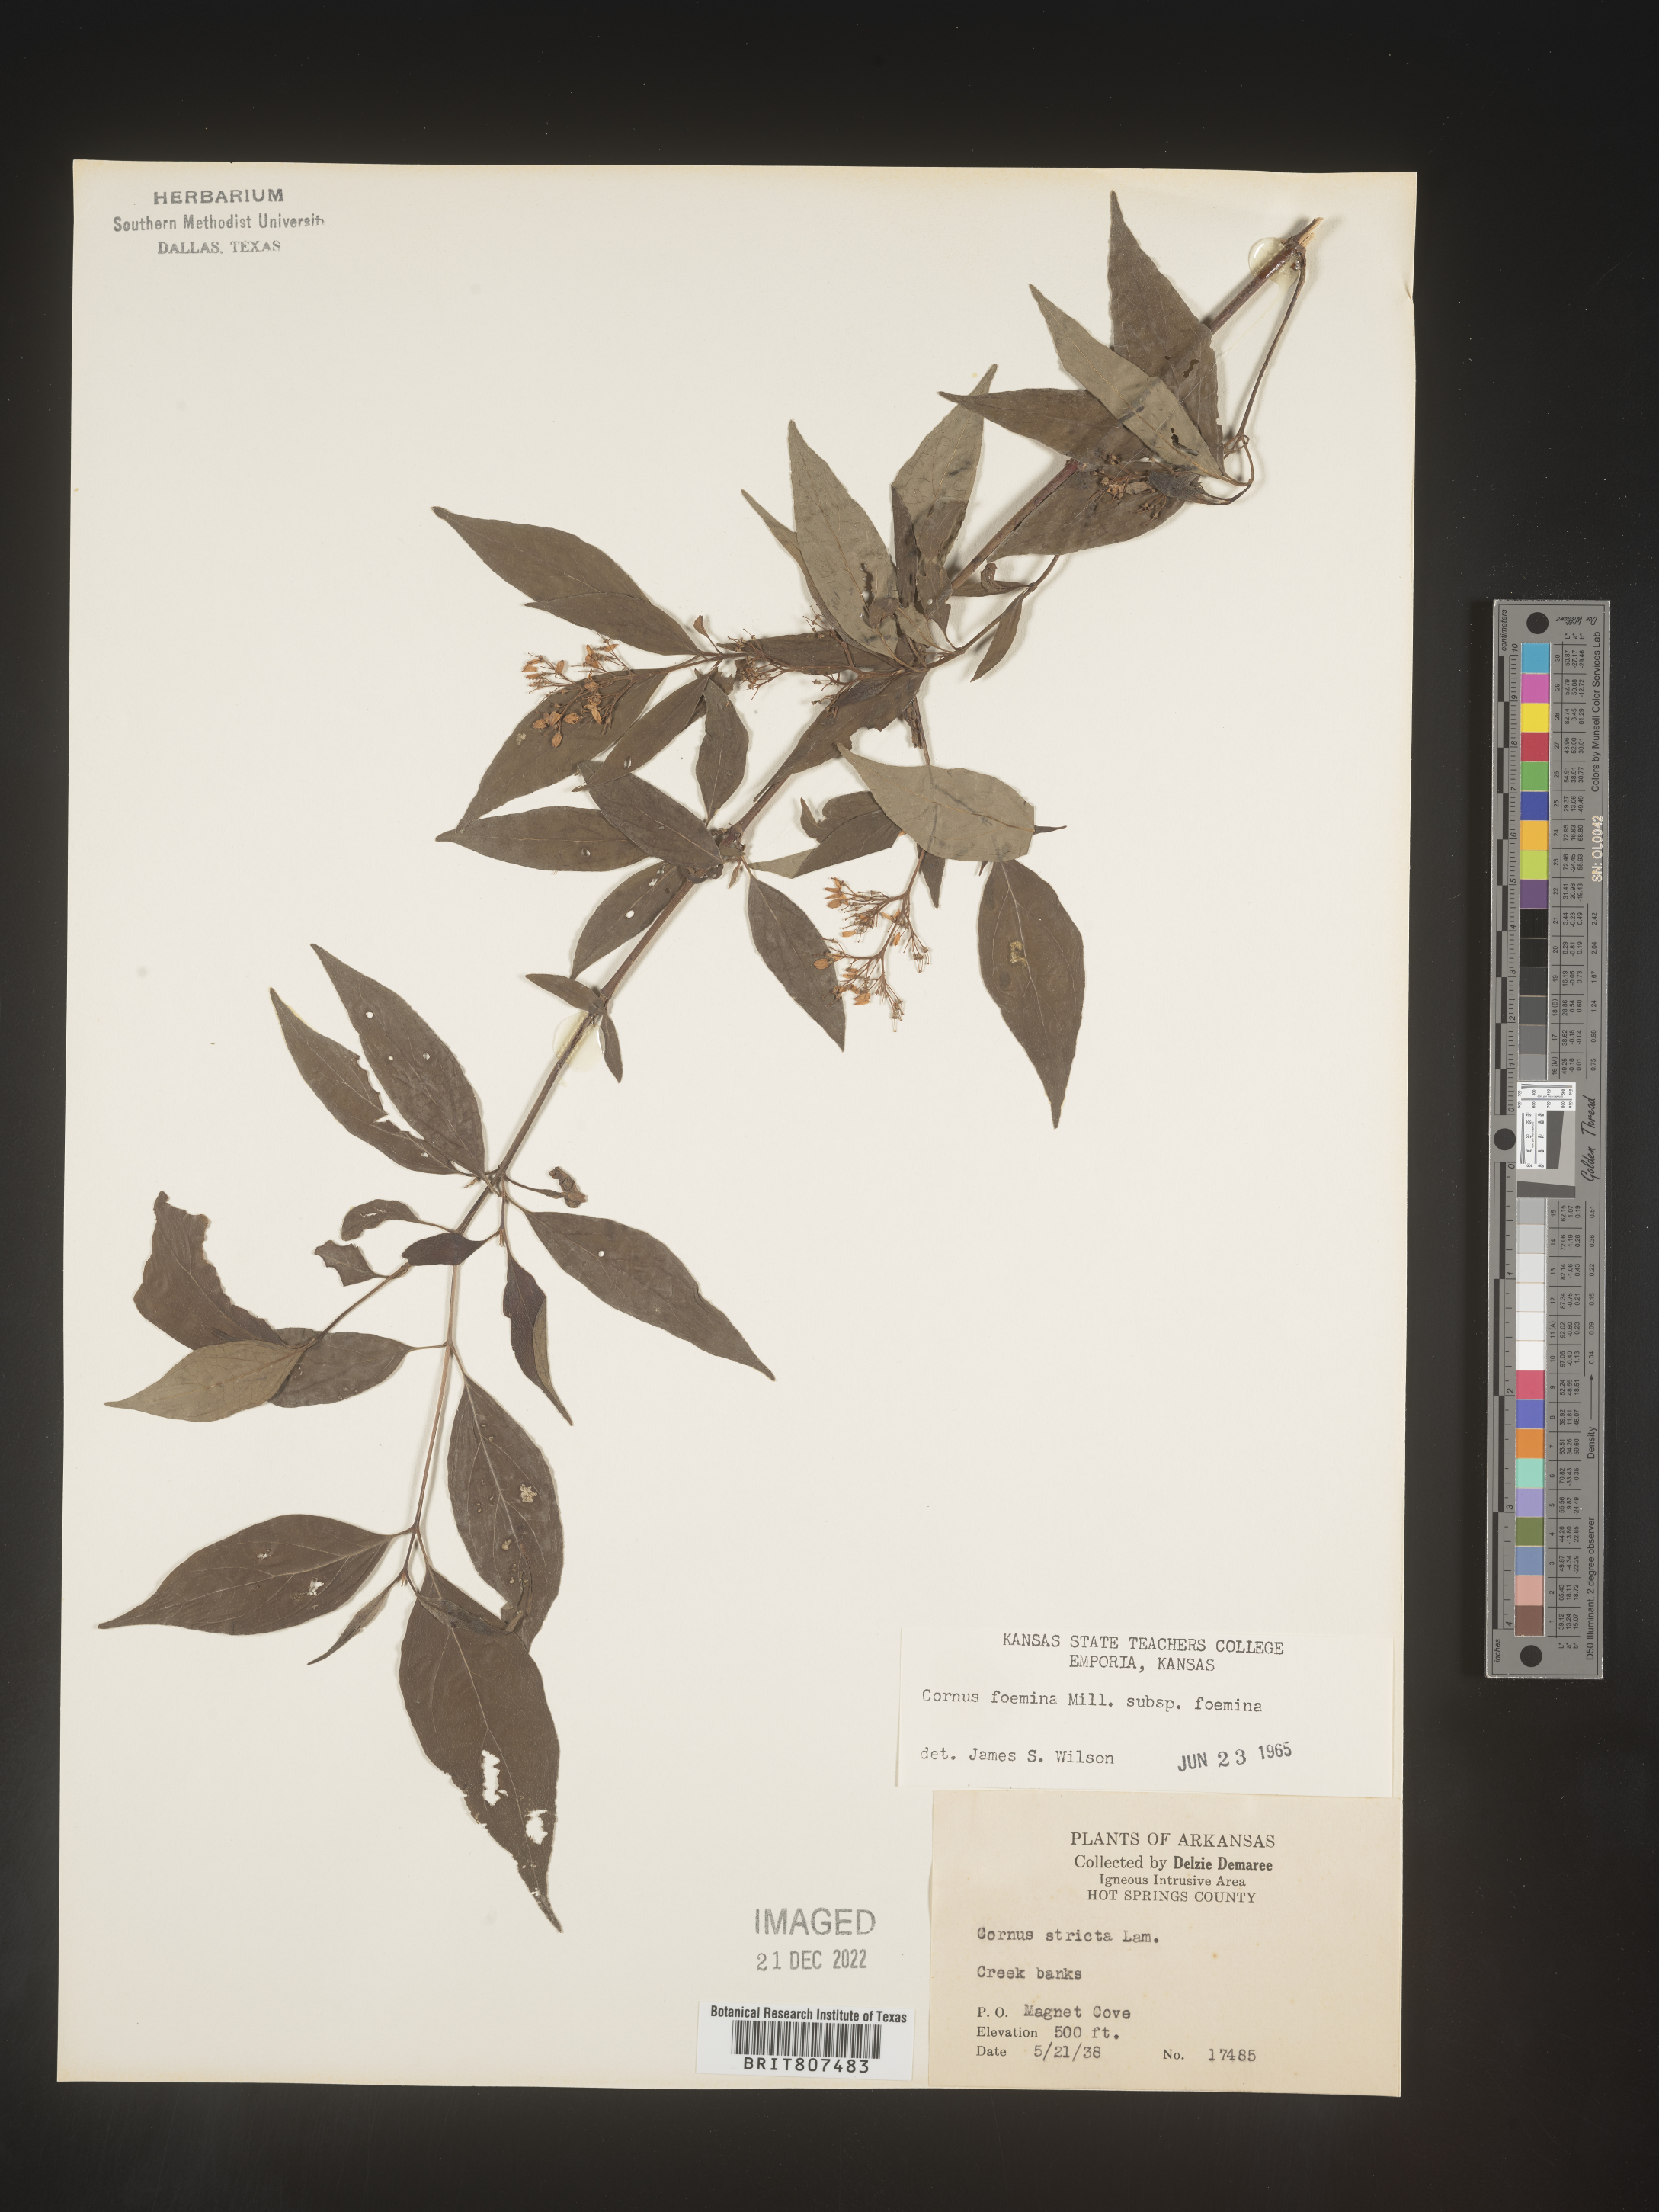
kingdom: Plantae
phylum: Tracheophyta
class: Magnoliopsida
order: Cornales
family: Cornaceae
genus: Cornus
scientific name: Cornus foemina
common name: Swamp dogwood
